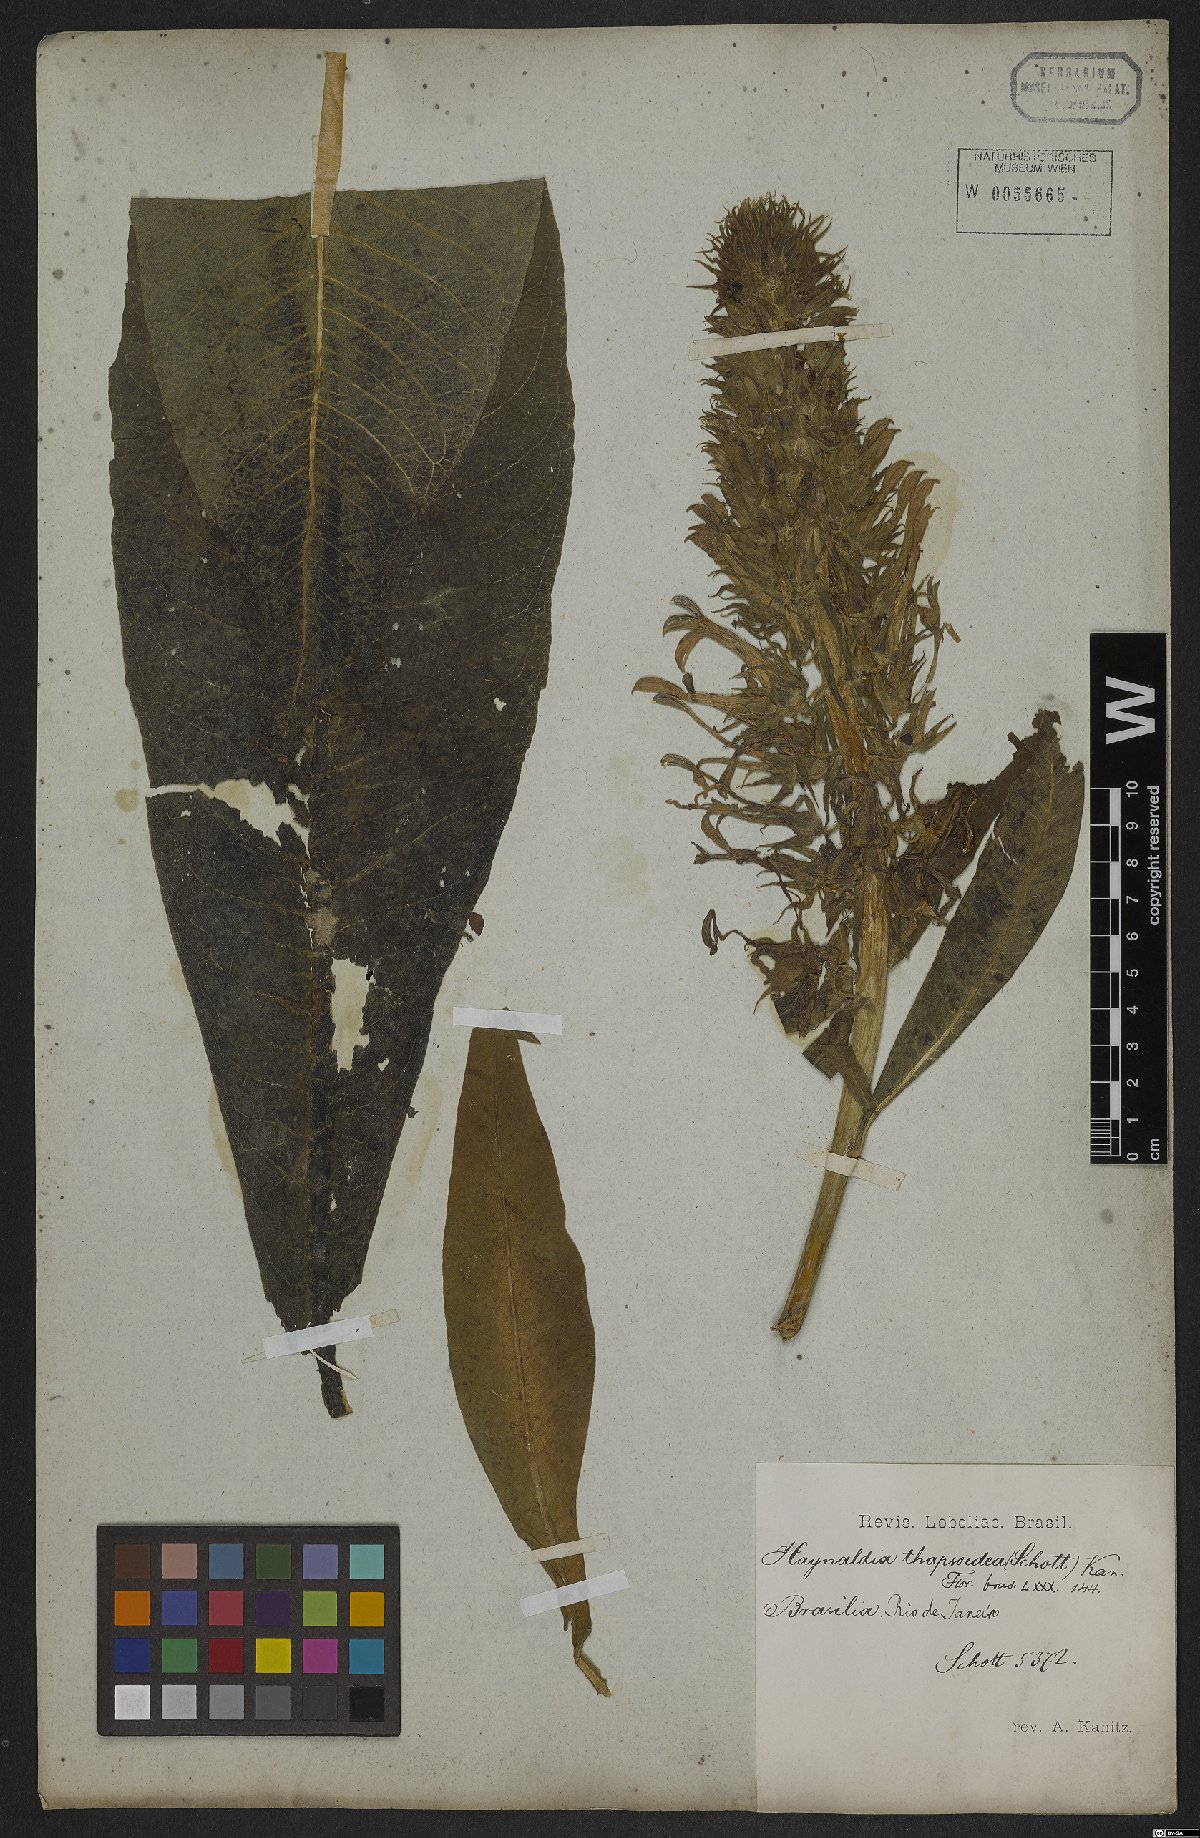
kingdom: Plantae
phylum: Tracheophyta
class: Magnoliopsida
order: Lamiales
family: Acanthaceae
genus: Lepidagathis
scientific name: Lepidagathis floribunda
